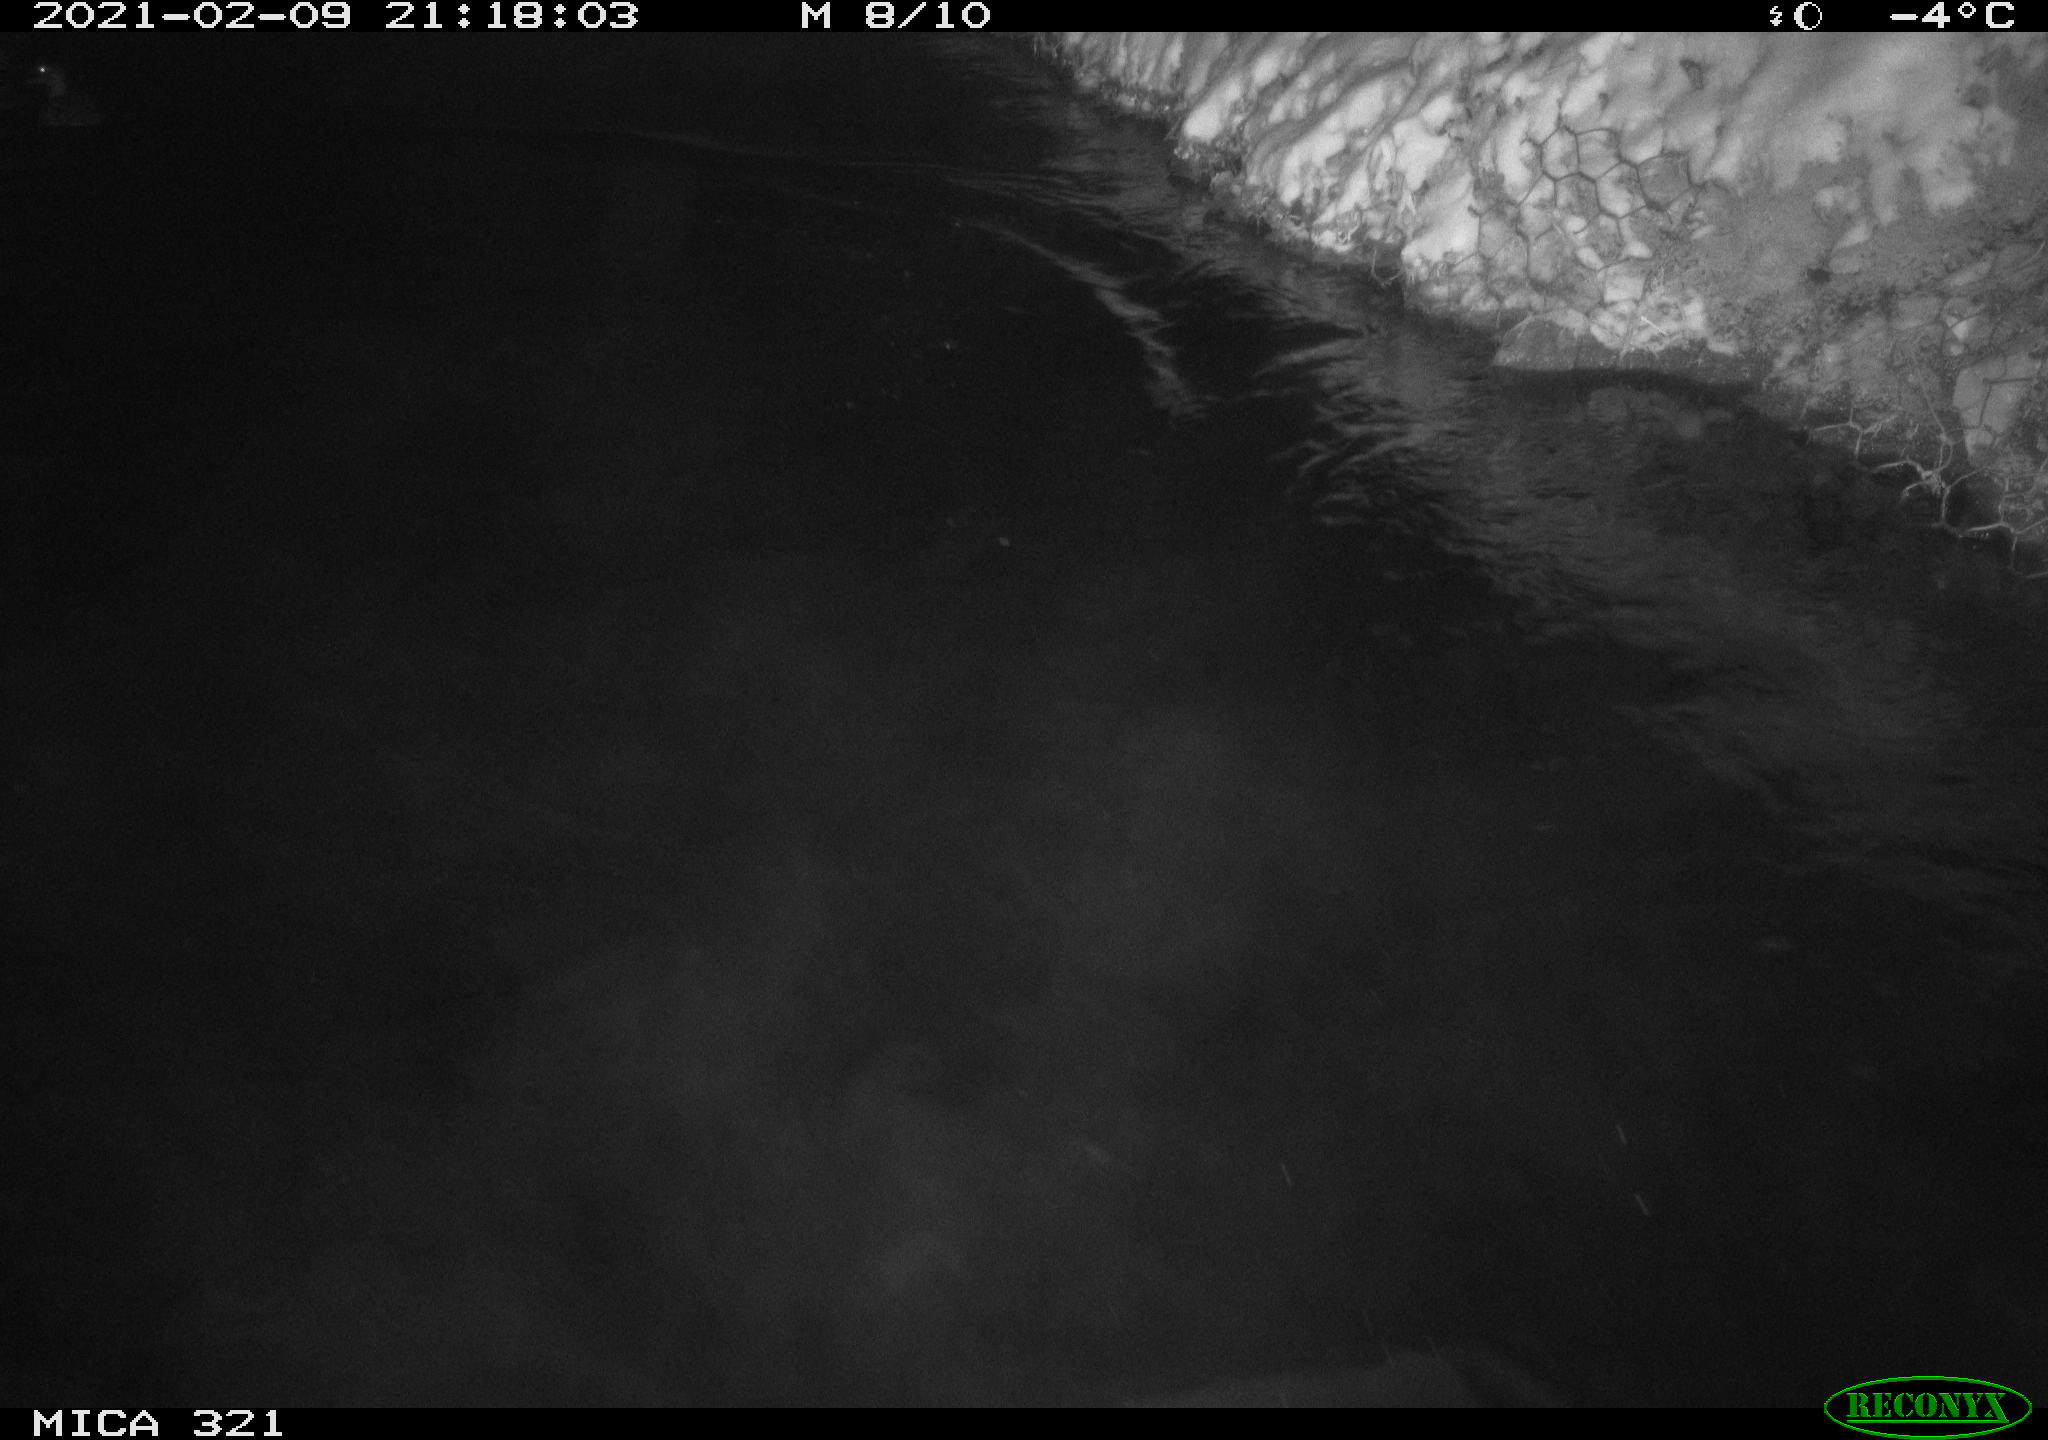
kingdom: Animalia
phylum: Chordata
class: Aves
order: Gruiformes
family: Rallidae
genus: Fulica
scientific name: Fulica atra
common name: Eurasian coot
